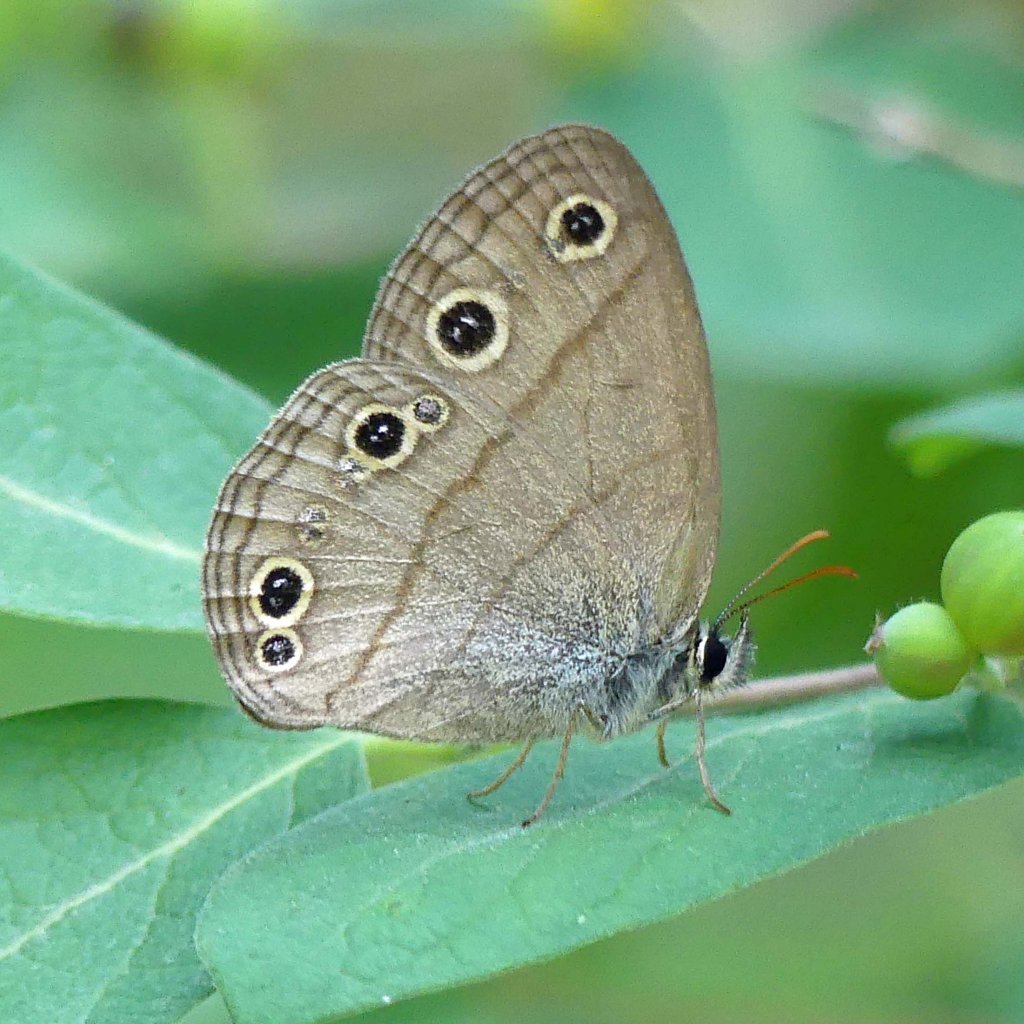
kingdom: Animalia
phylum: Arthropoda
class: Insecta
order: Lepidoptera
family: Nymphalidae
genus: Euptychia
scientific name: Euptychia cymela
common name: Little Wood Satyr
